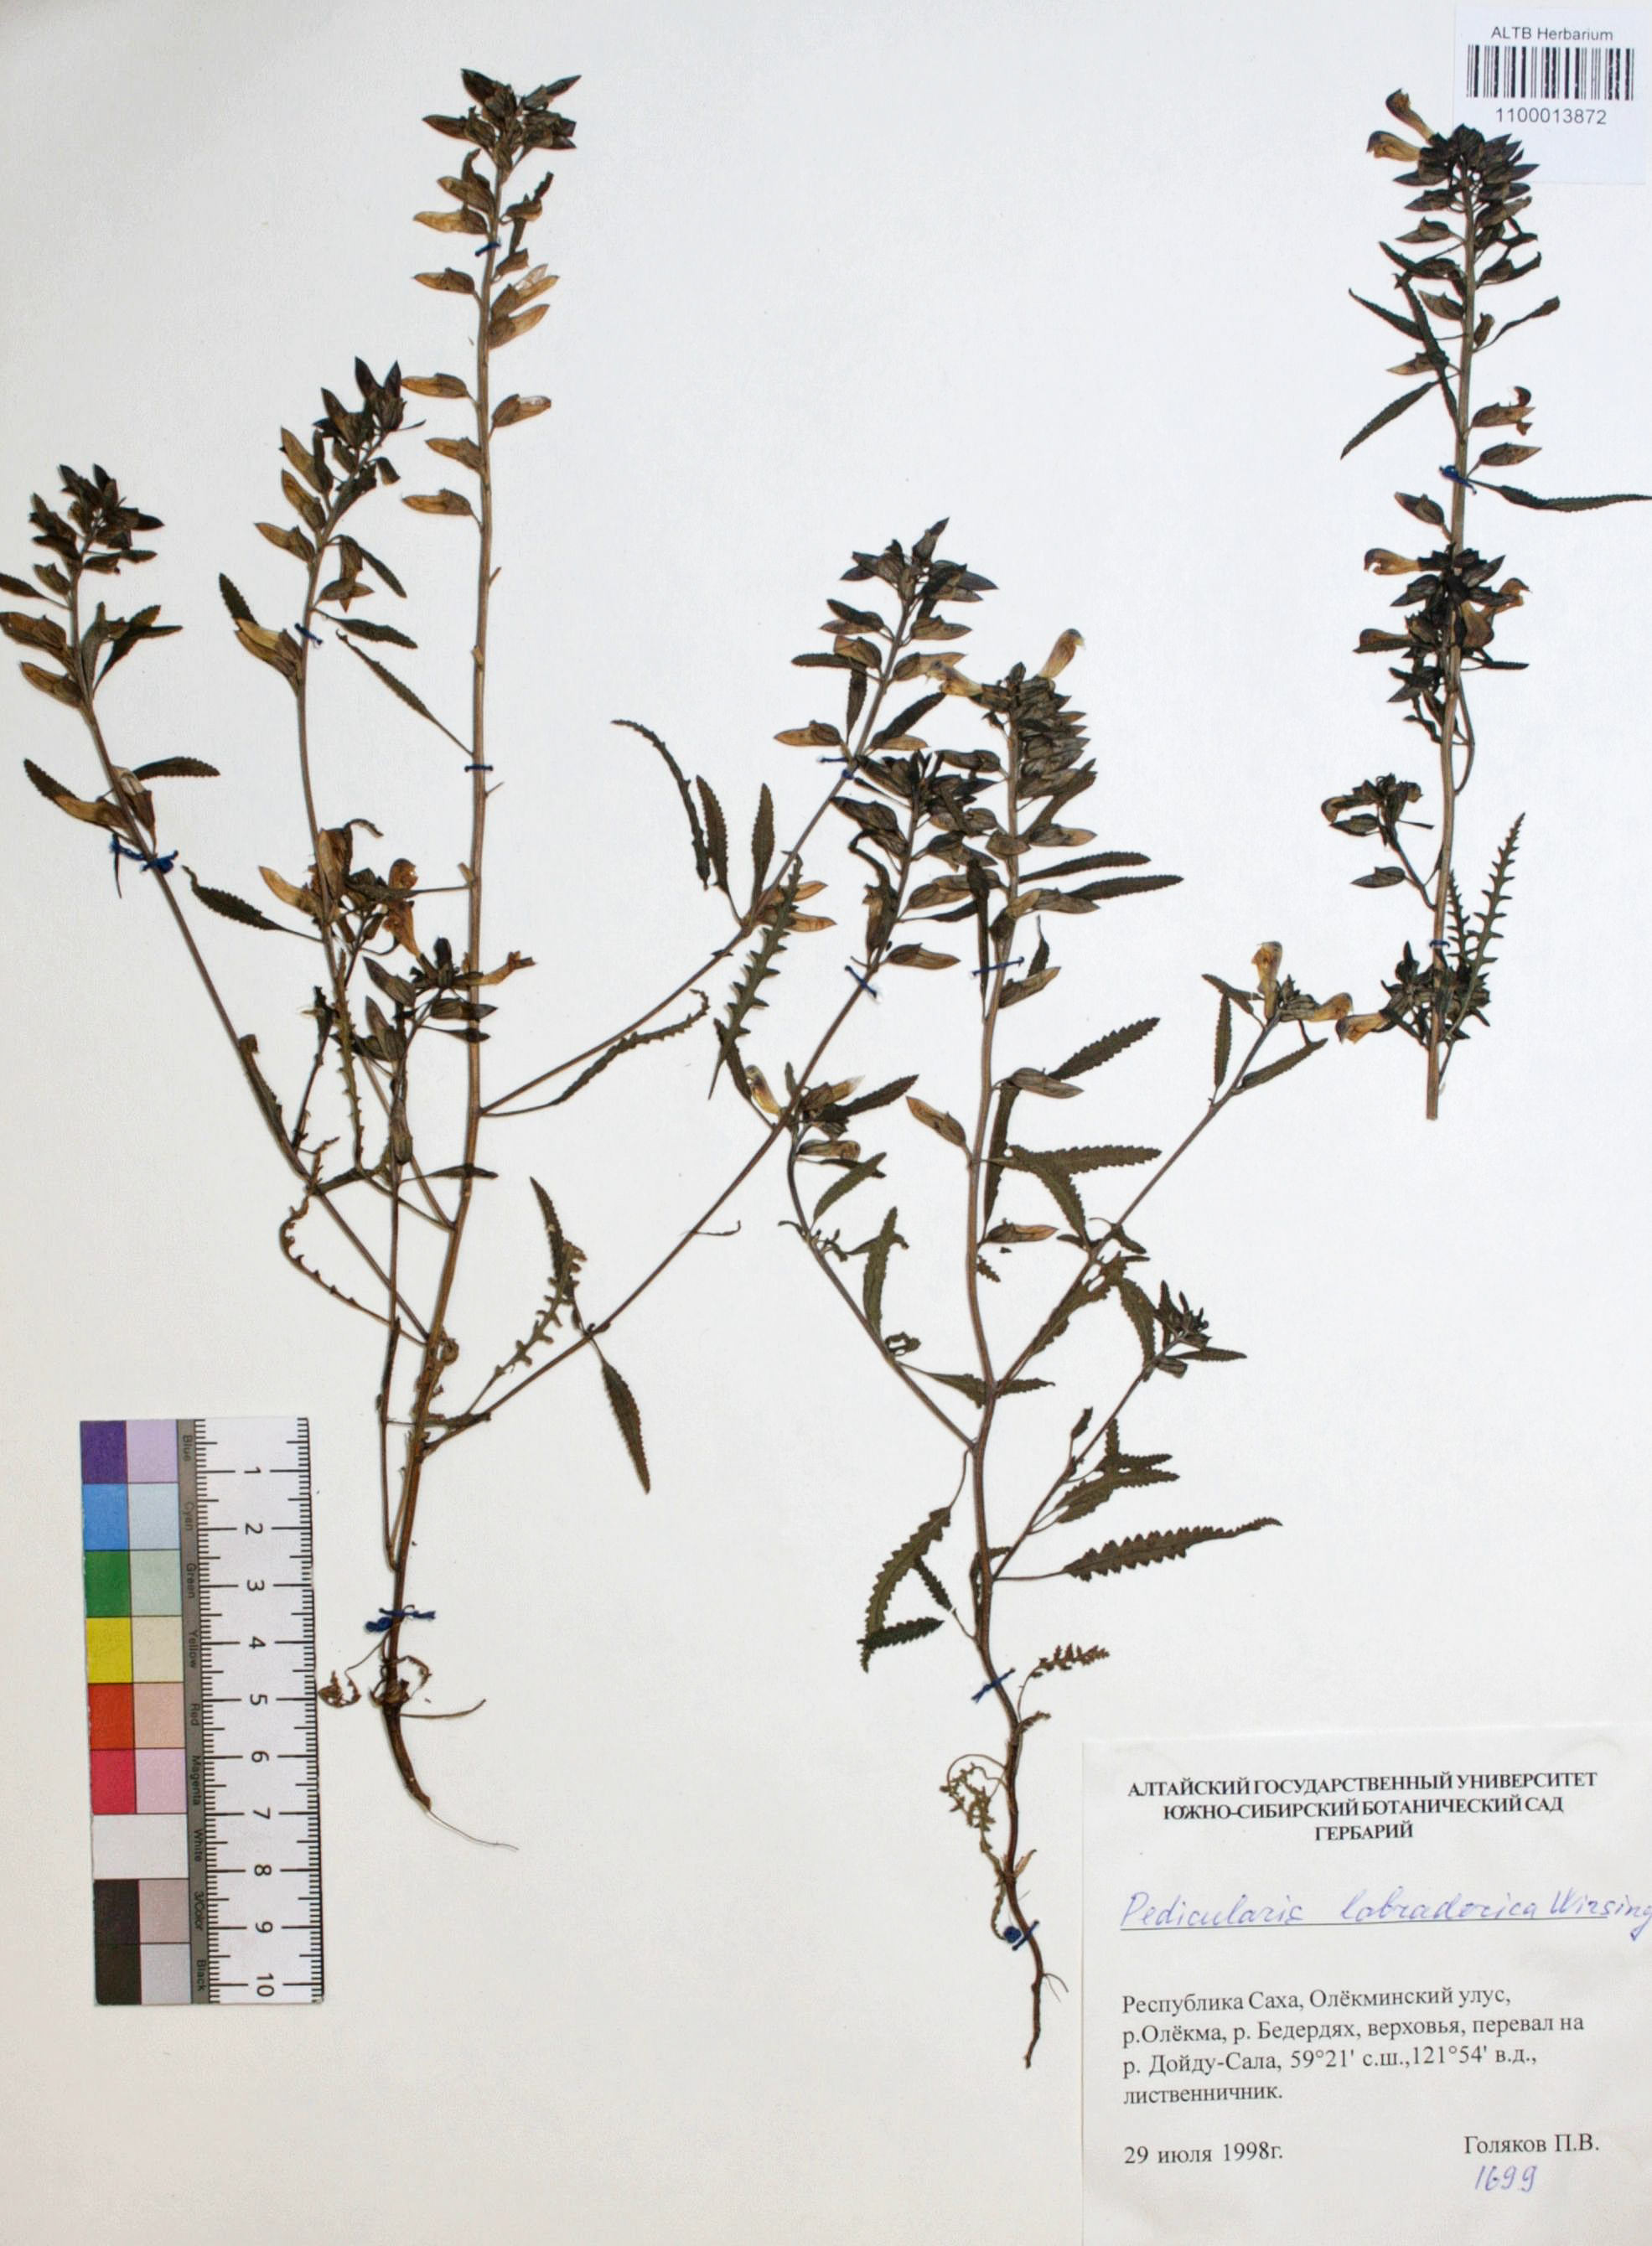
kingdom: Plantae
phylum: Tracheophyta
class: Magnoliopsida
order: Lamiales
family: Orobanchaceae
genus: Pedicularis
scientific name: Pedicularis labradorica
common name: Labrador lousewort
